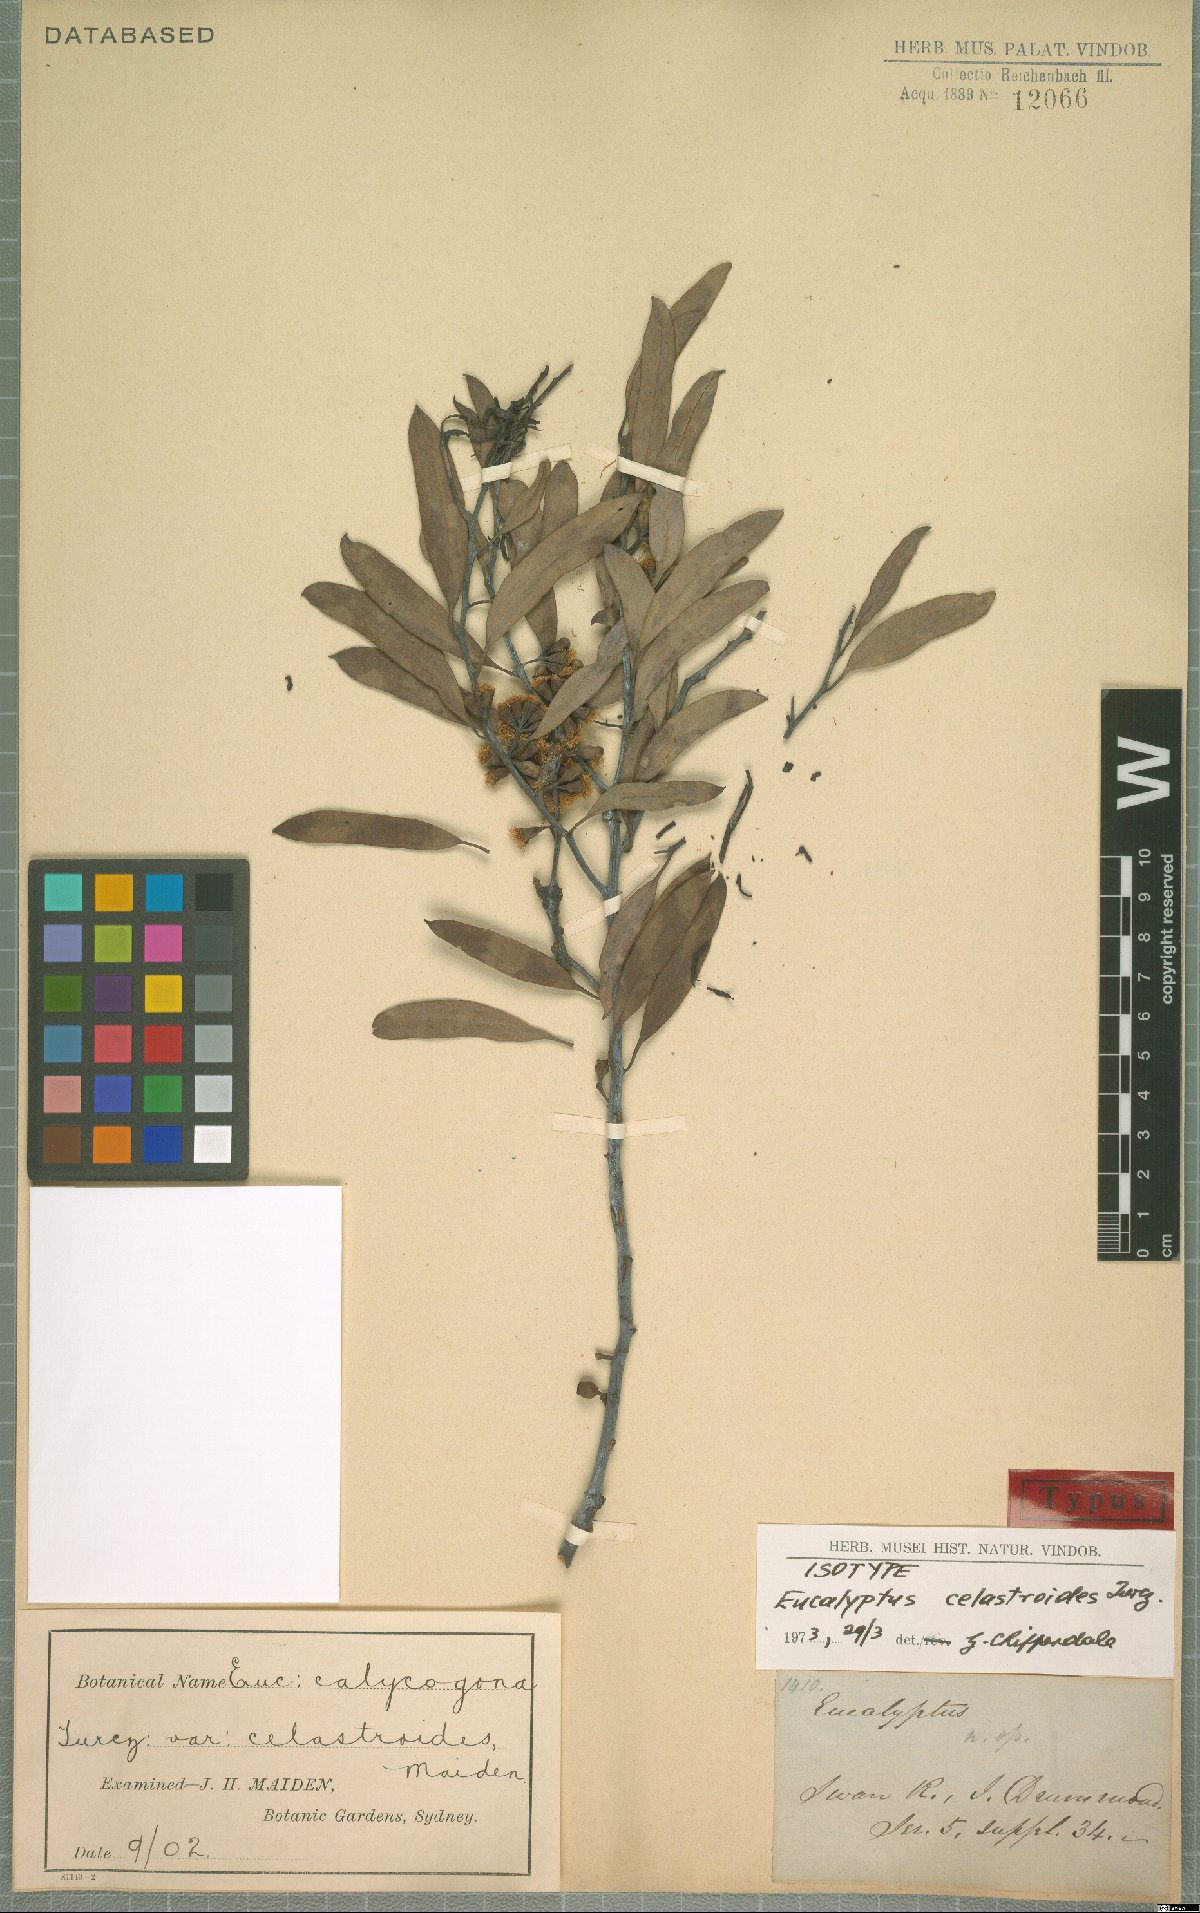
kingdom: Plantae
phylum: Tracheophyta
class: Magnoliopsida
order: Myrtales
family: Myrtaceae
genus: Eucalyptus
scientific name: Eucalyptus celastroides
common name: Mirret
